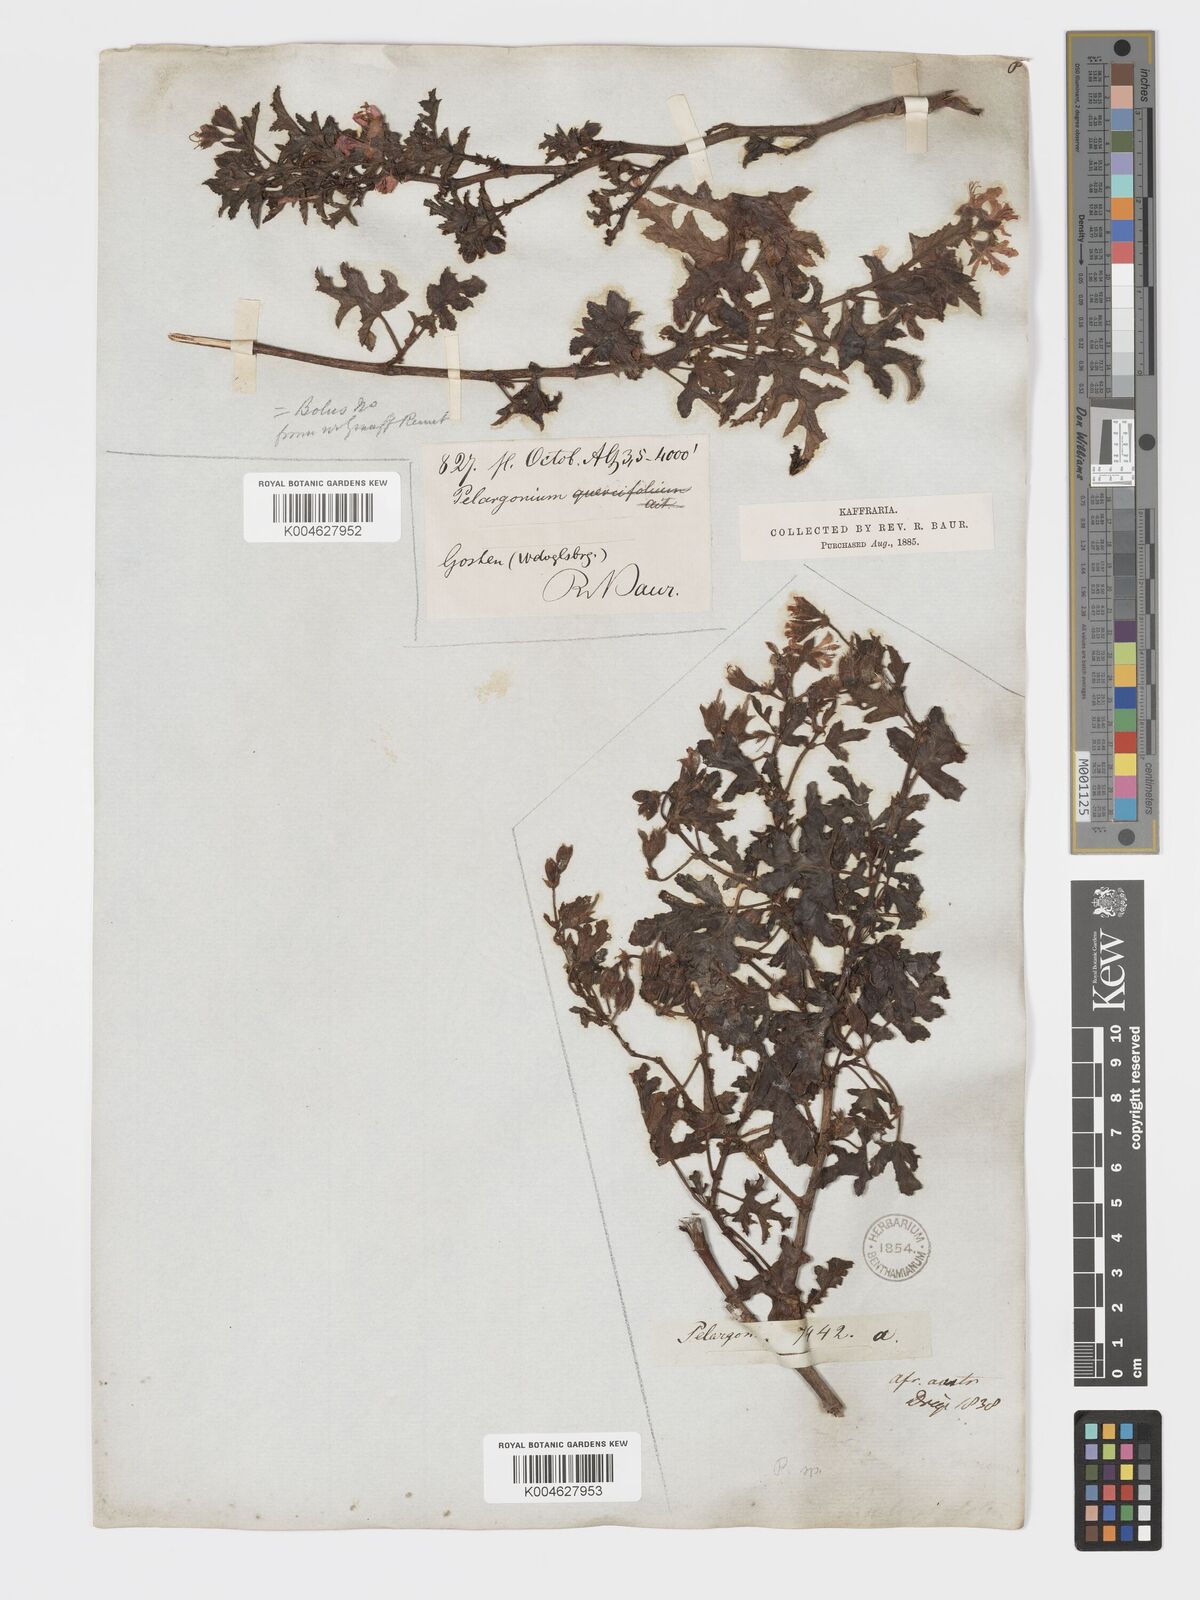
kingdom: Plantae
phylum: Tracheophyta
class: Magnoliopsida
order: Geraniales
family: Geraniaceae
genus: Pelargonium
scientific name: Pelargonium quercifolium
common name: Oakleaf geranium
